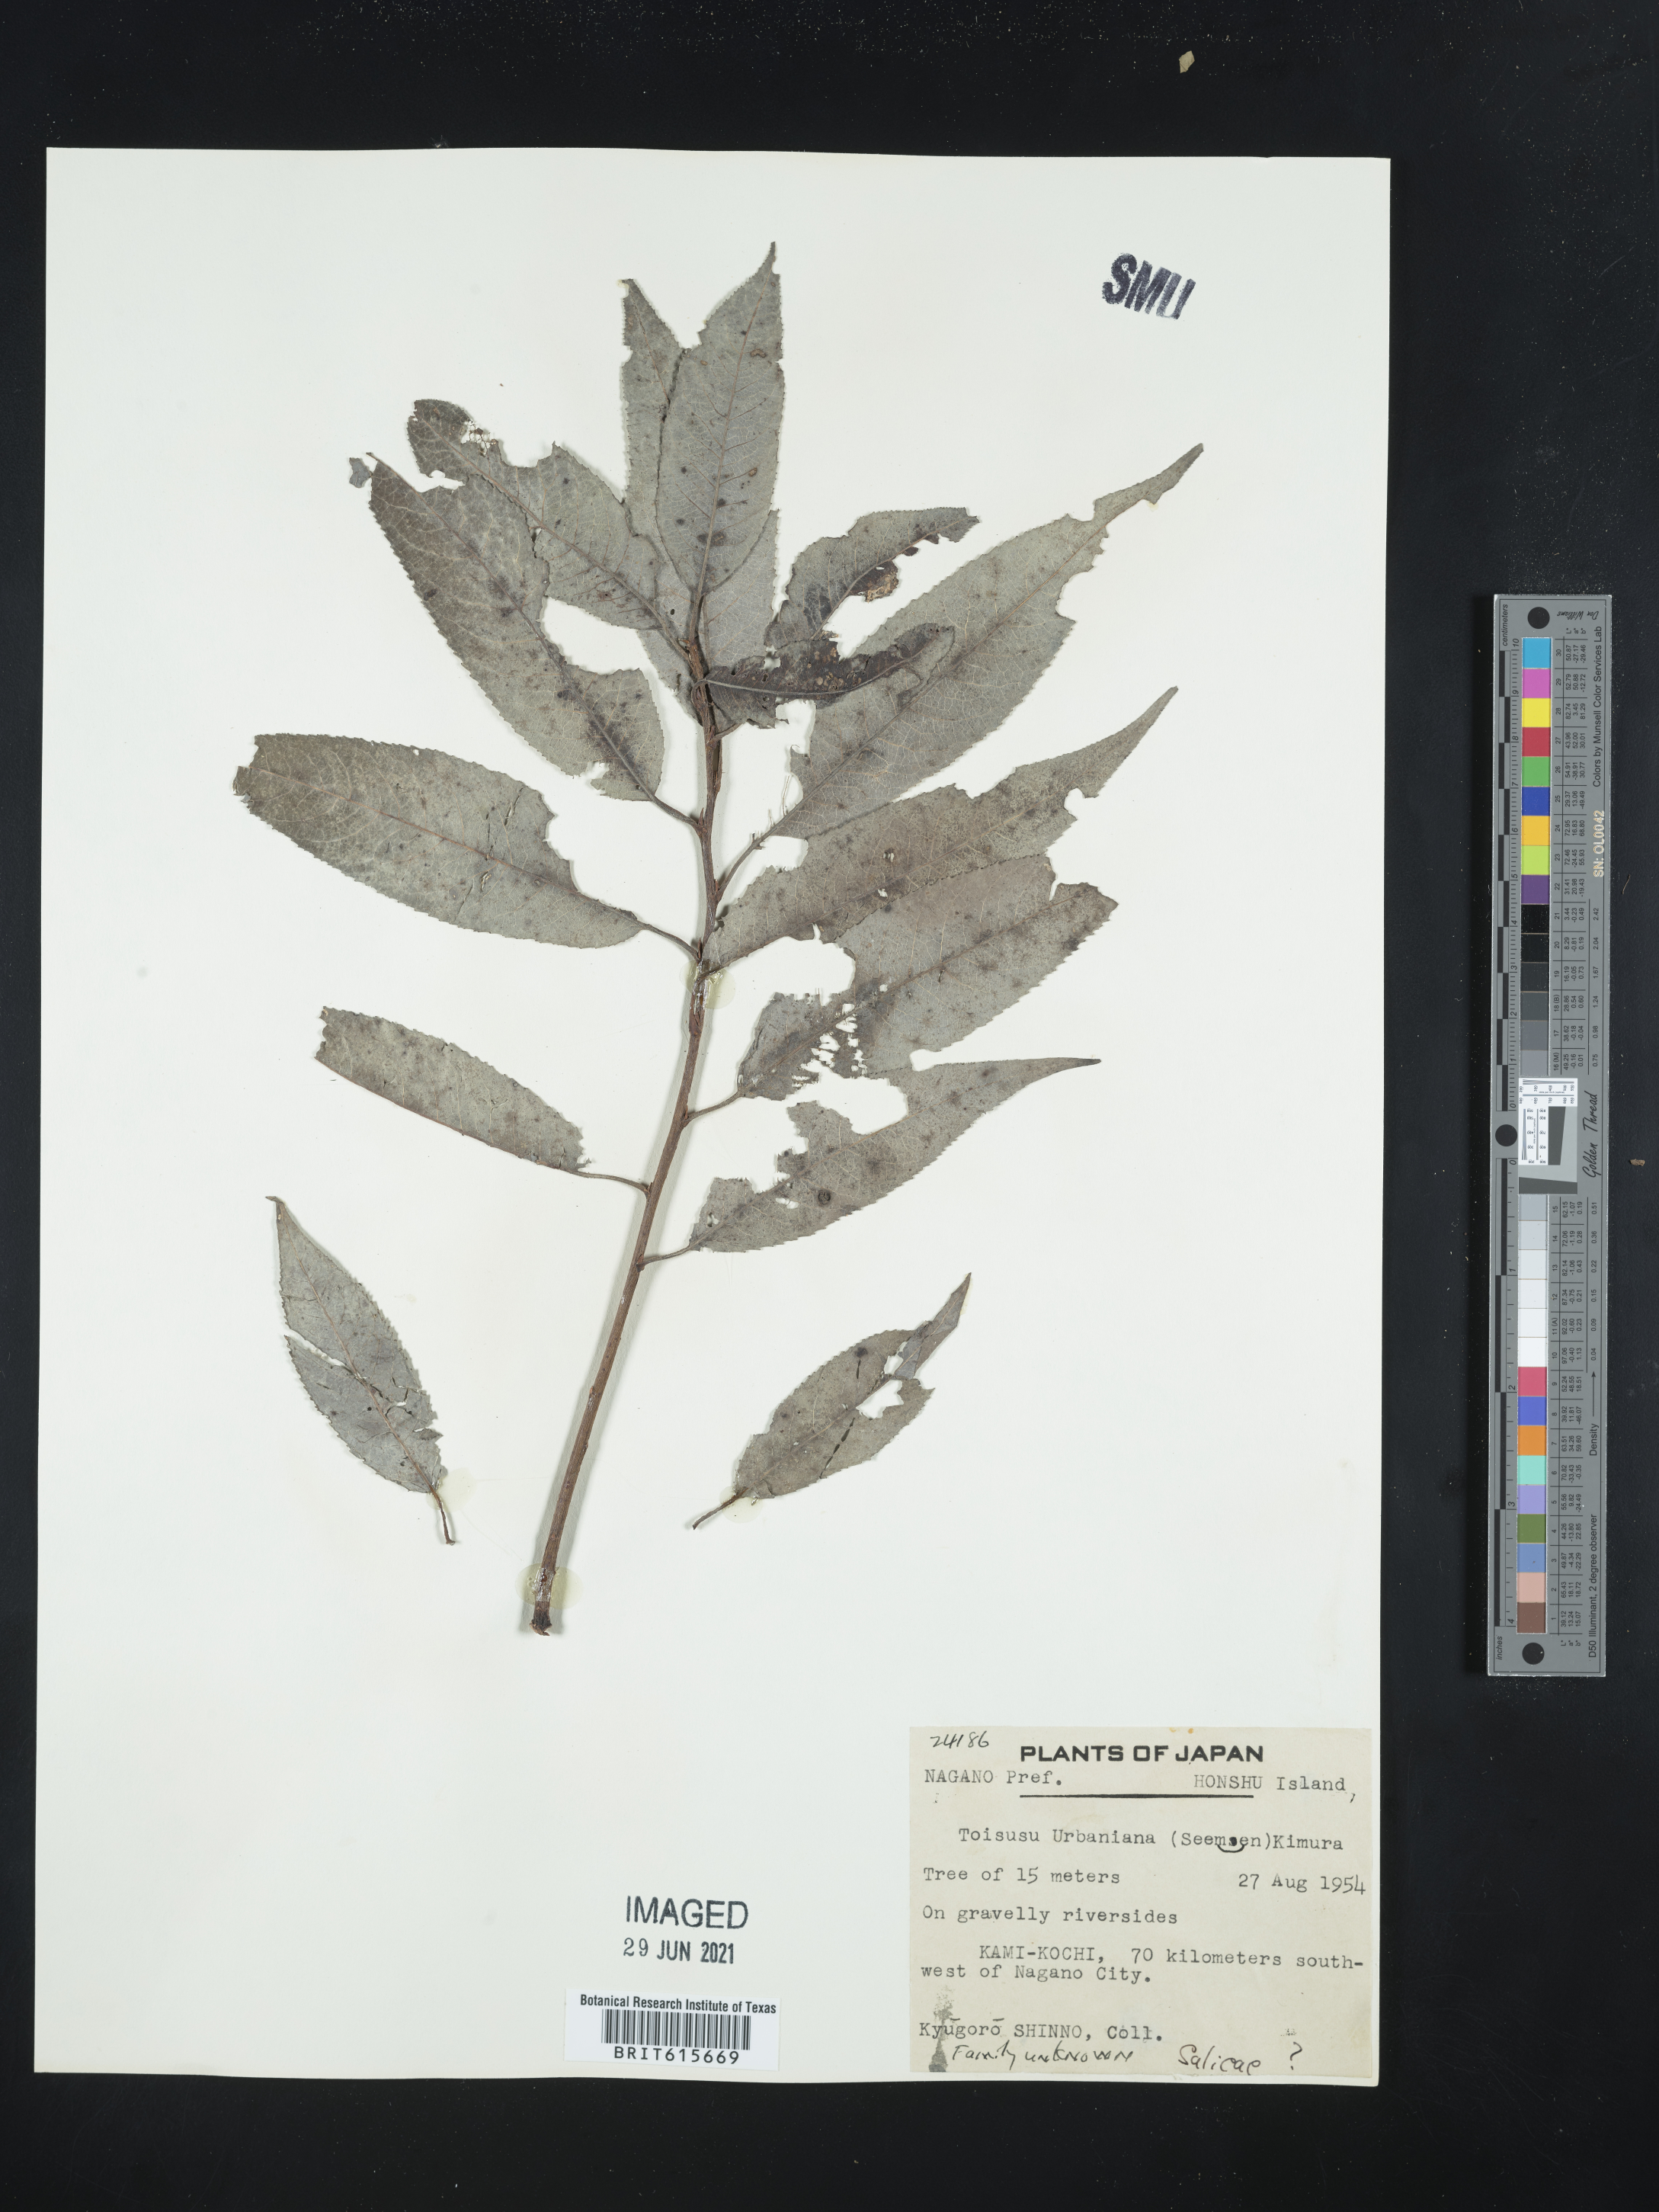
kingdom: Plantae
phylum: Tracheophyta
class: Magnoliopsida
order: Malpighiales
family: Salicaceae
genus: Chosenia
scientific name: Chosenia urbaniana
